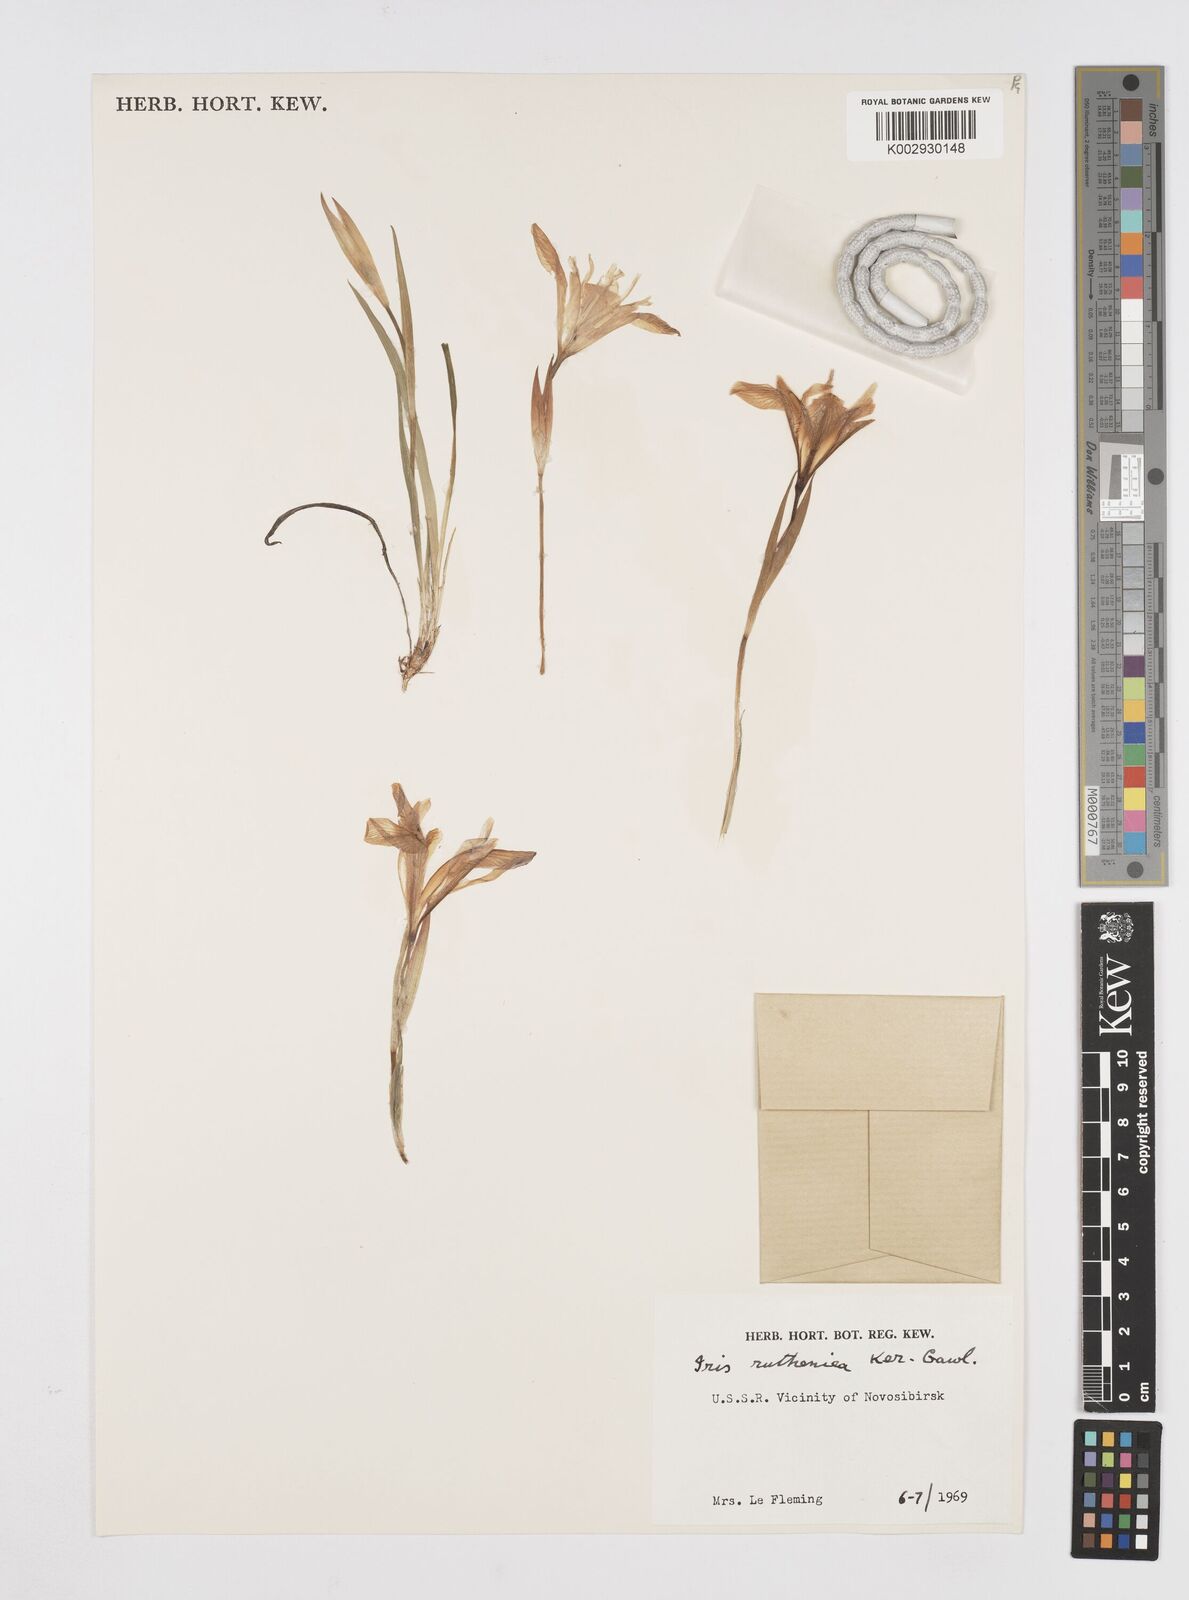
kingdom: Plantae
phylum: Tracheophyta
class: Liliopsida
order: Asparagales
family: Iridaceae
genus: Iris
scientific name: Iris ruthenica
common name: Purple-bract iris
